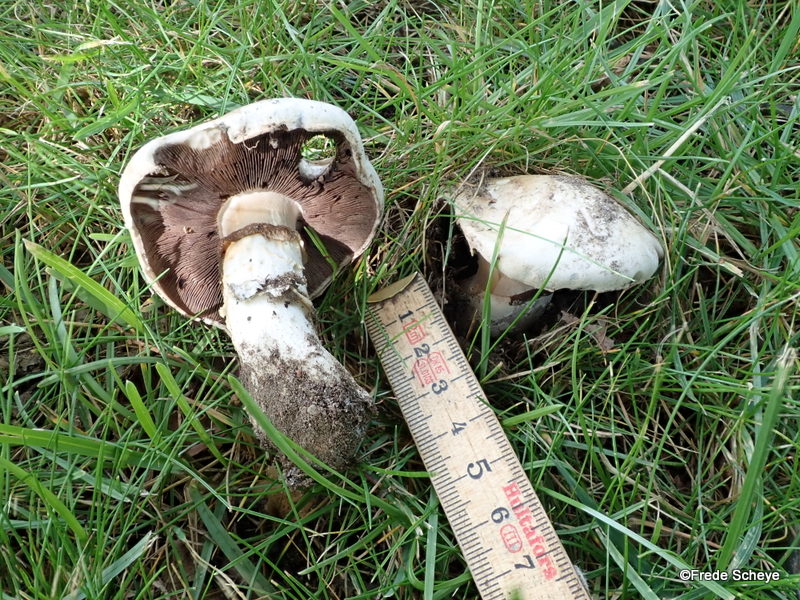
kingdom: Fungi
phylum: Basidiomycota
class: Agaricomycetes
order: Agaricales
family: Agaricaceae
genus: Agaricus
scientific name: Agaricus bitorquis
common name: vej-champignon
